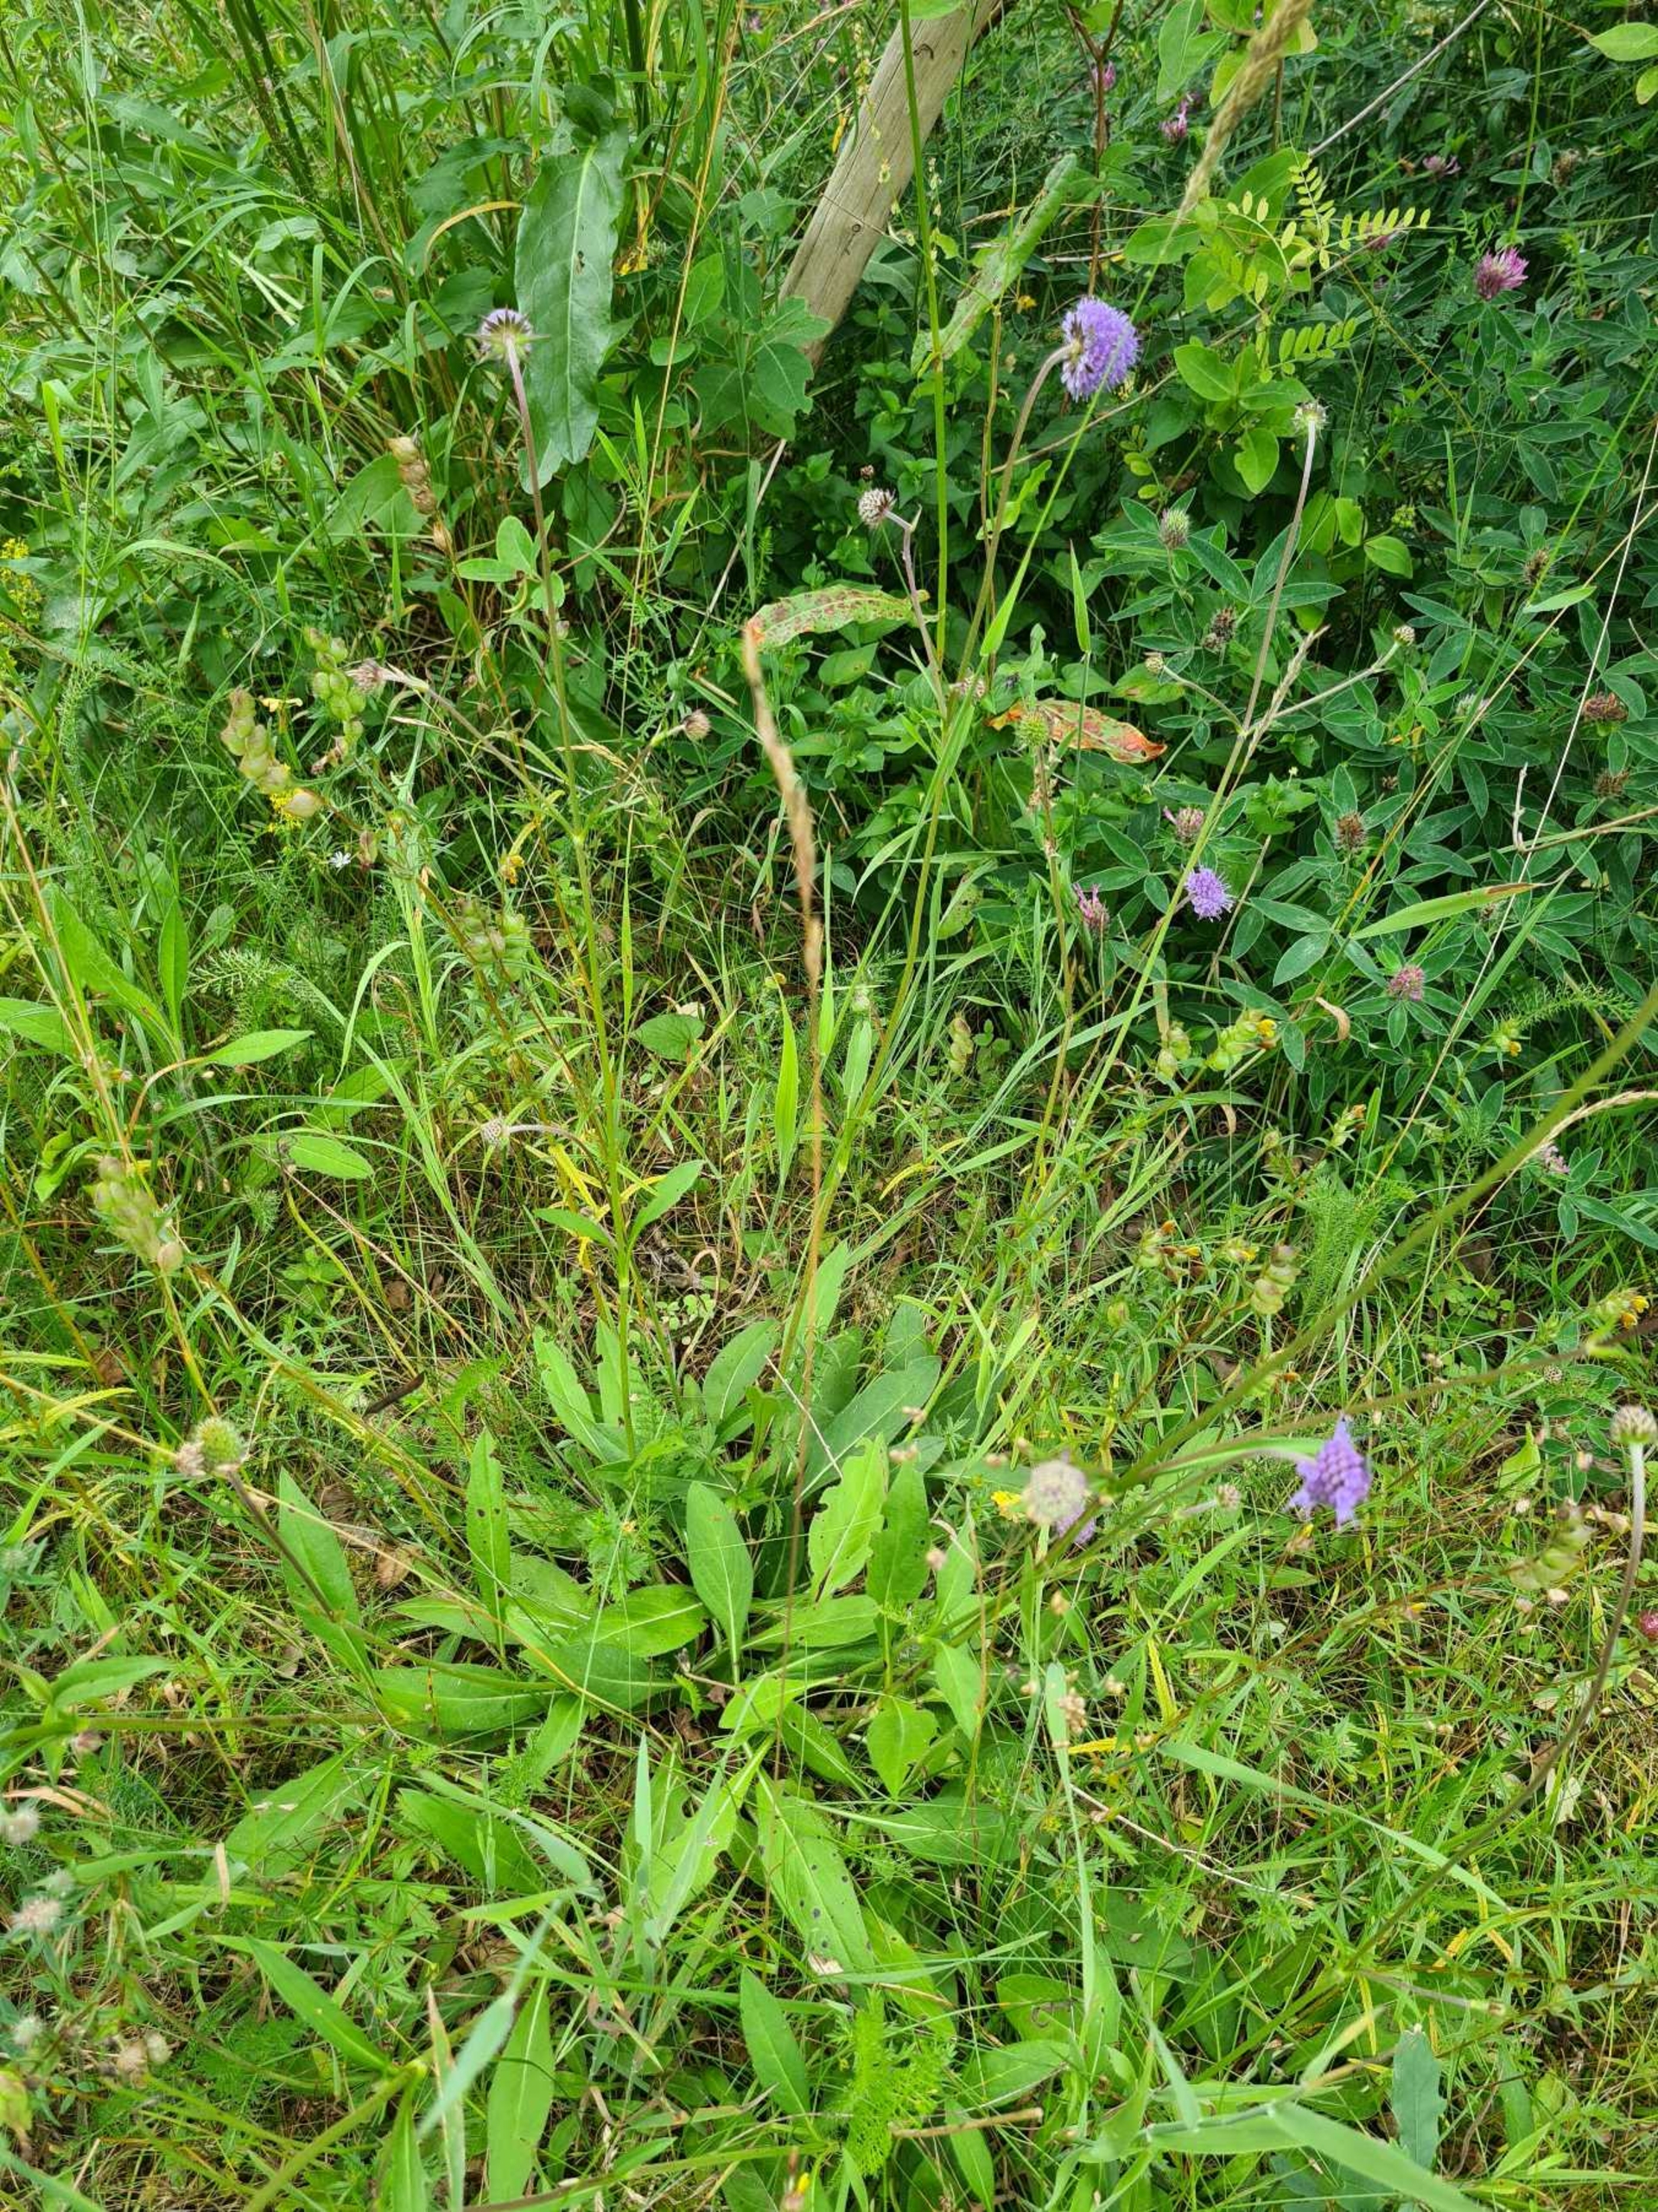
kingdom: Plantae
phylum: Tracheophyta
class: Magnoliopsida
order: Dipsacales
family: Caprifoliaceae
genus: Succisa
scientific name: Succisa pratensis
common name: Djævelsbid
